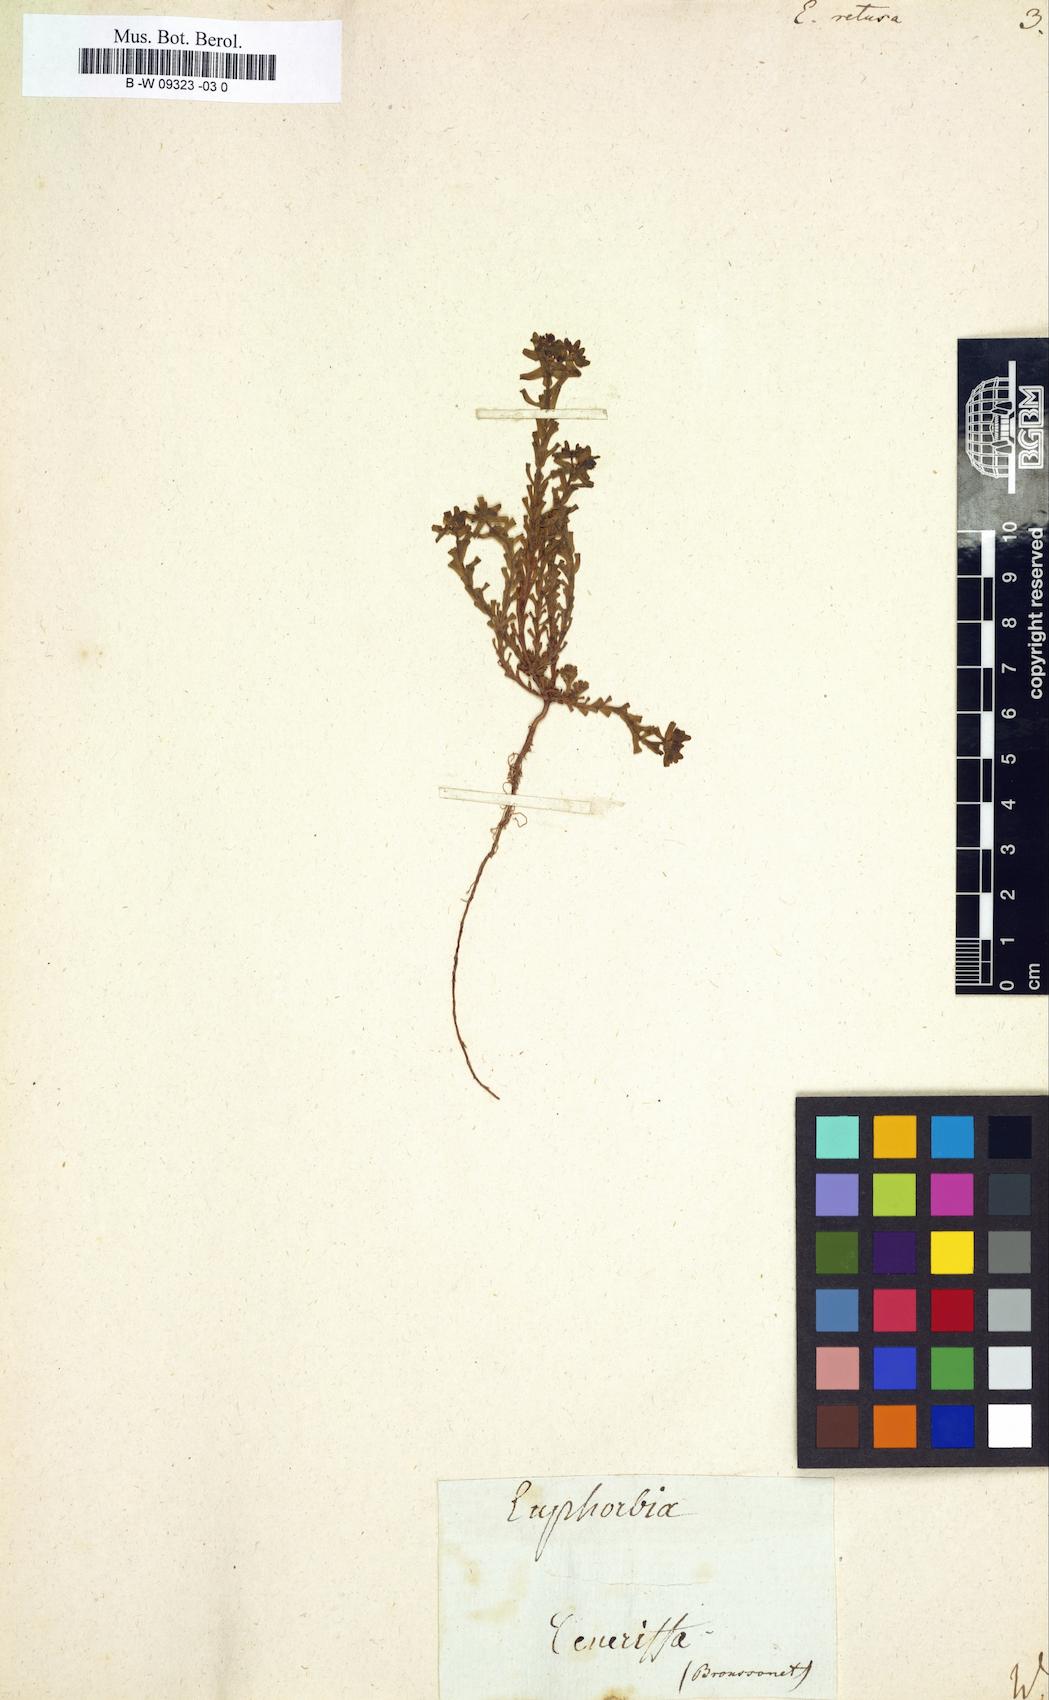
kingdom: Plantae
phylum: Tracheophyta
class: Magnoliopsida
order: Malpighiales
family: Euphorbiaceae
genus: Euphorbia
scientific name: Euphorbia retusa
